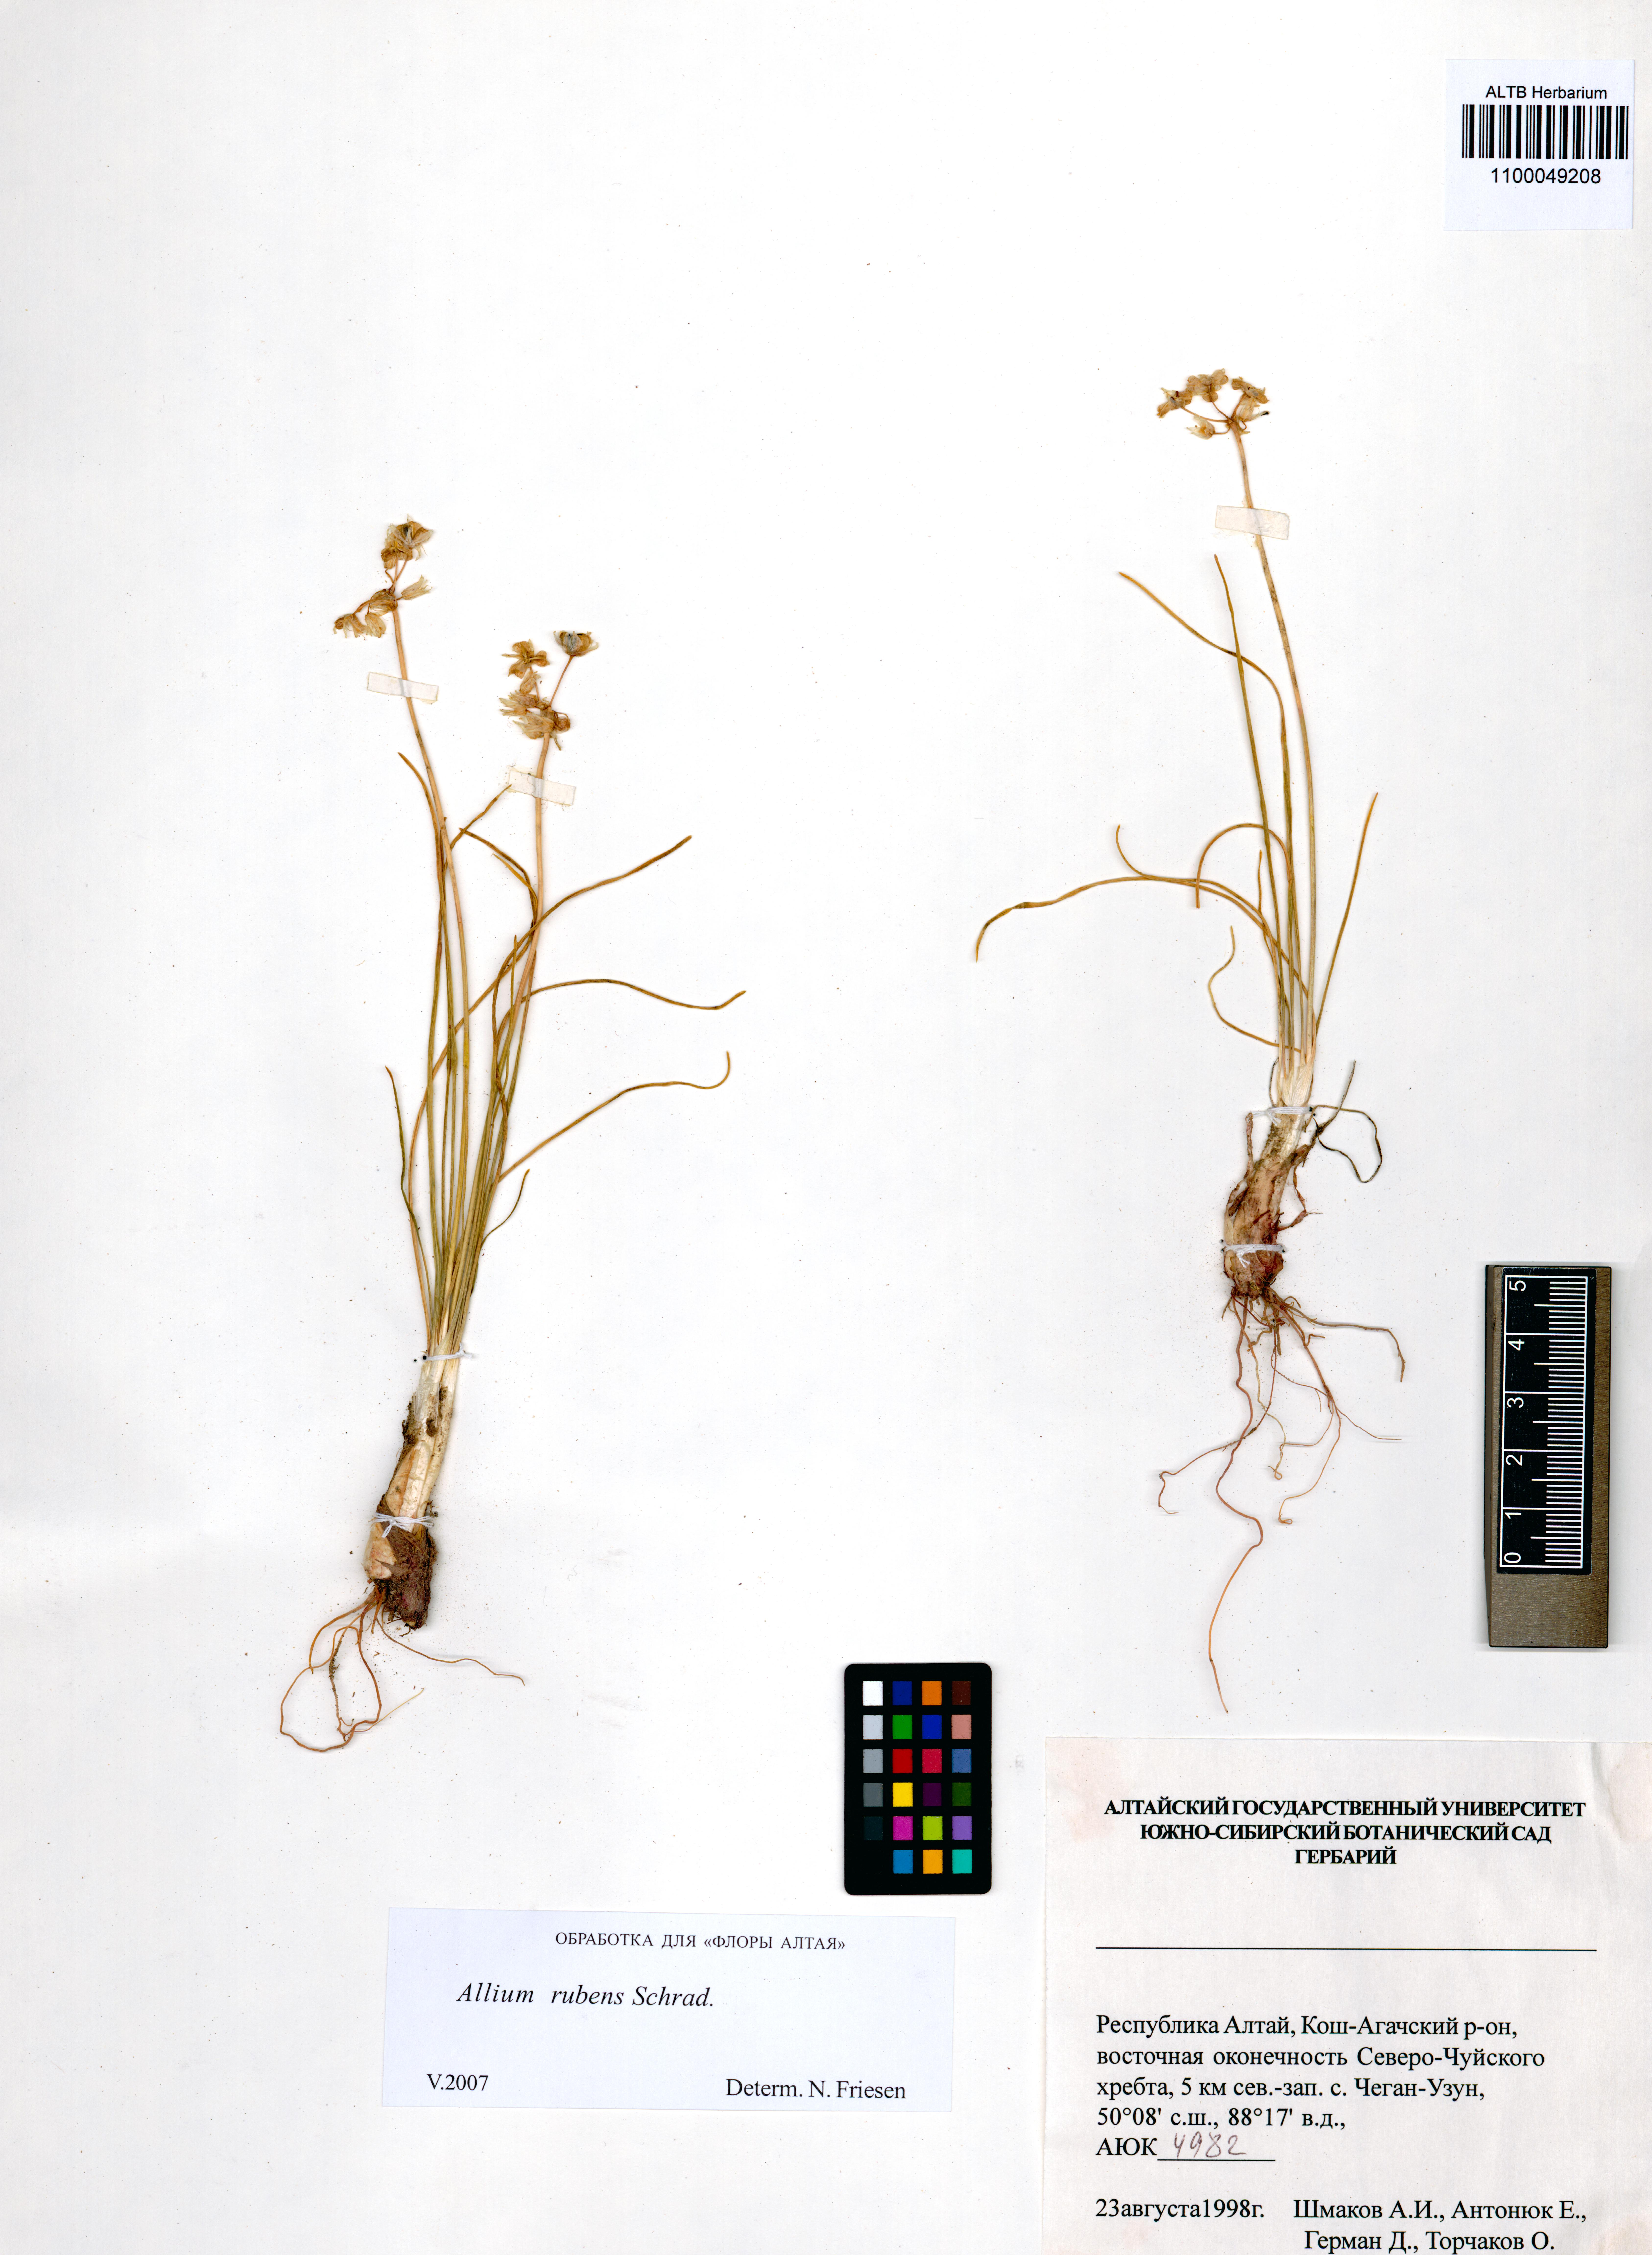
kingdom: Plantae
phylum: Tracheophyta
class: Liliopsida
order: Asparagales
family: Amaryllidaceae
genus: Allium
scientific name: Allium rubens
